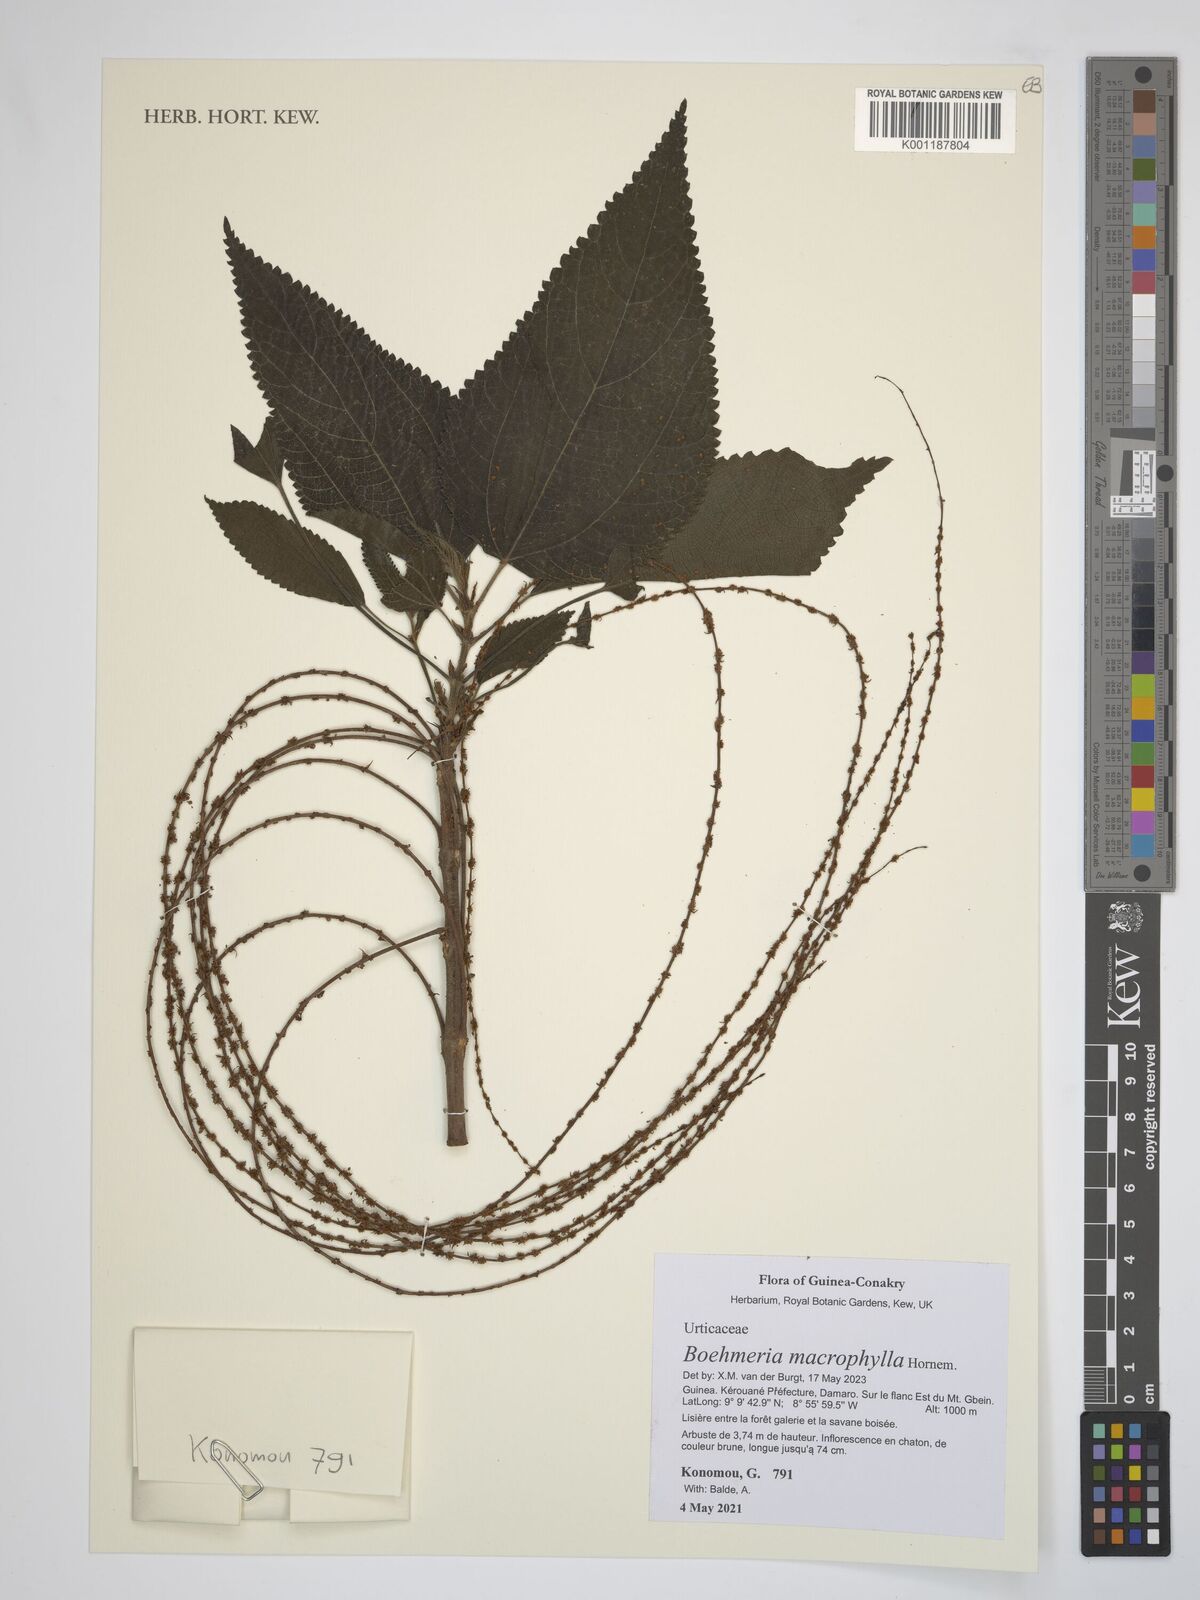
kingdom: Plantae
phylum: Tracheophyta
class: Magnoliopsida
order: Rosales
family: Urticaceae
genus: Boehmeria
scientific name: Boehmeria virgata
